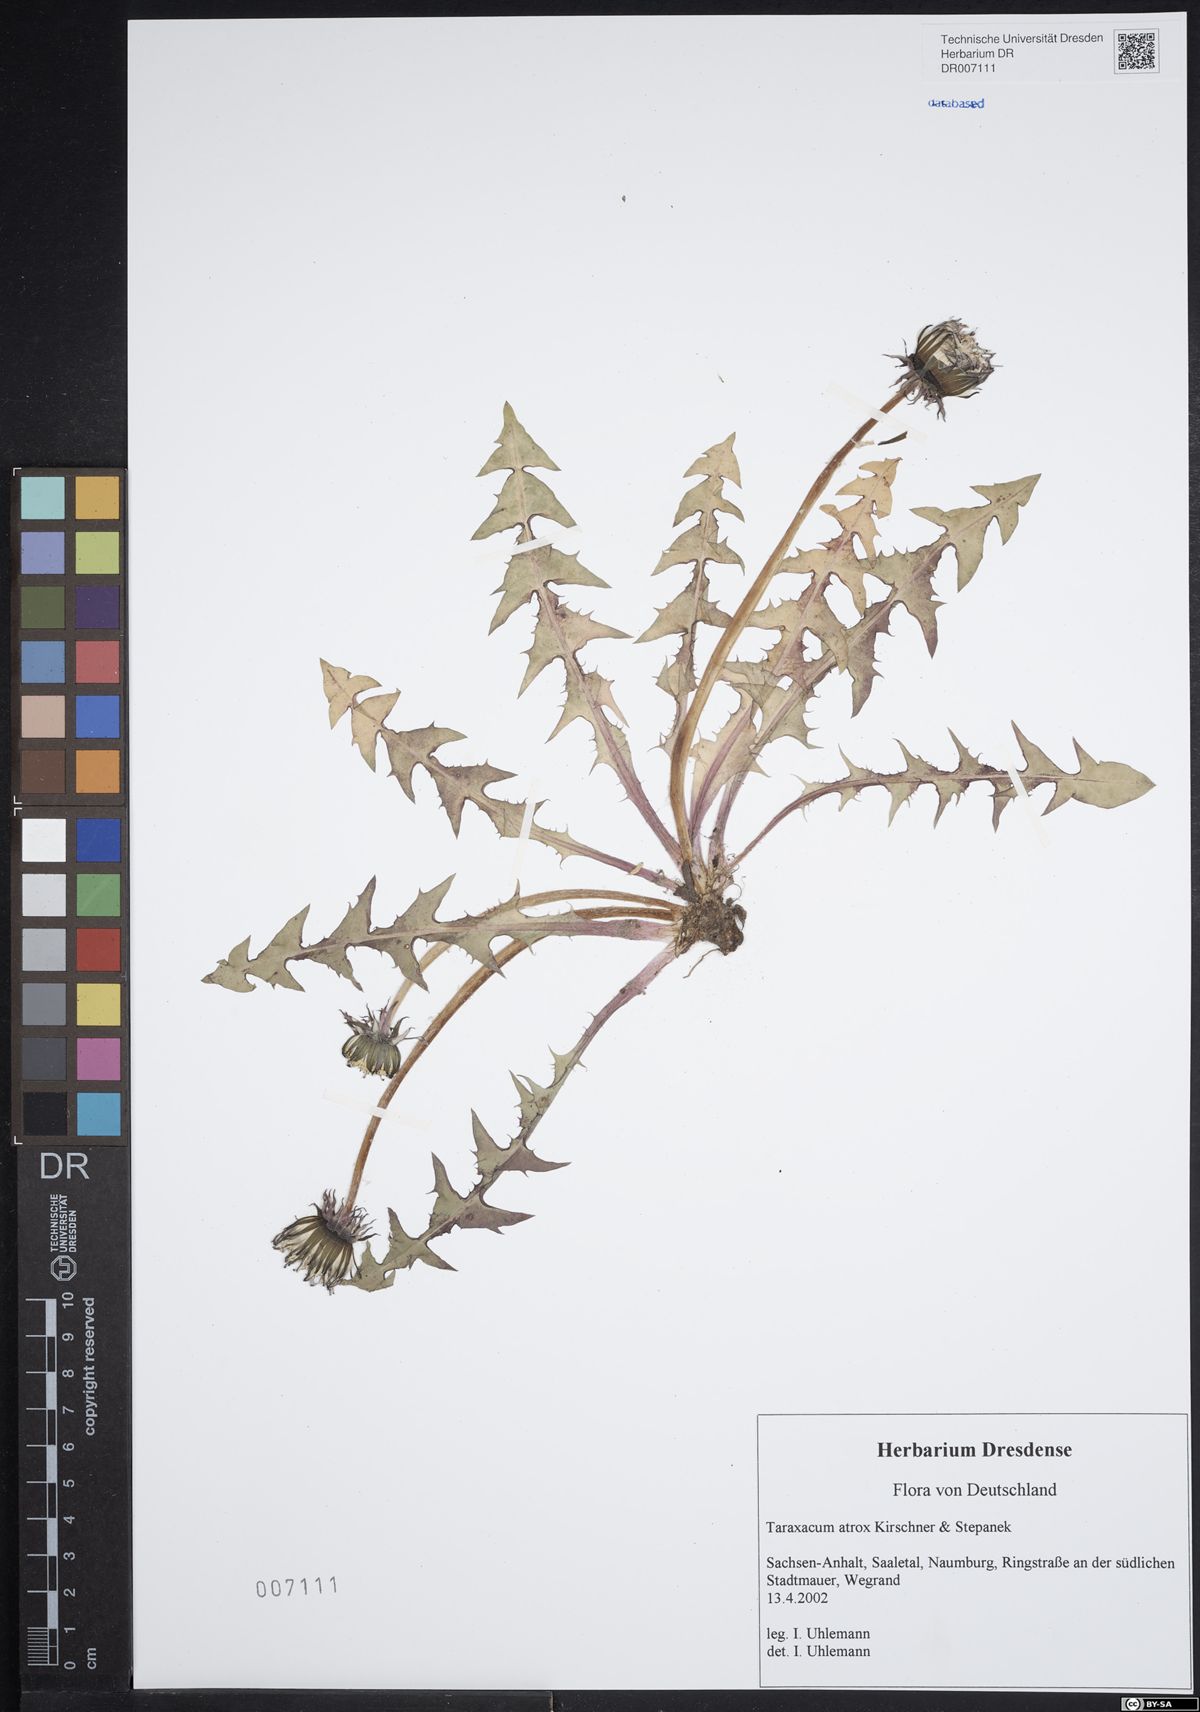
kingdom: Plantae
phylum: Tracheophyta
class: Magnoliopsida
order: Asterales
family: Asteraceae
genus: Taraxacum
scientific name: Taraxacum atrox
